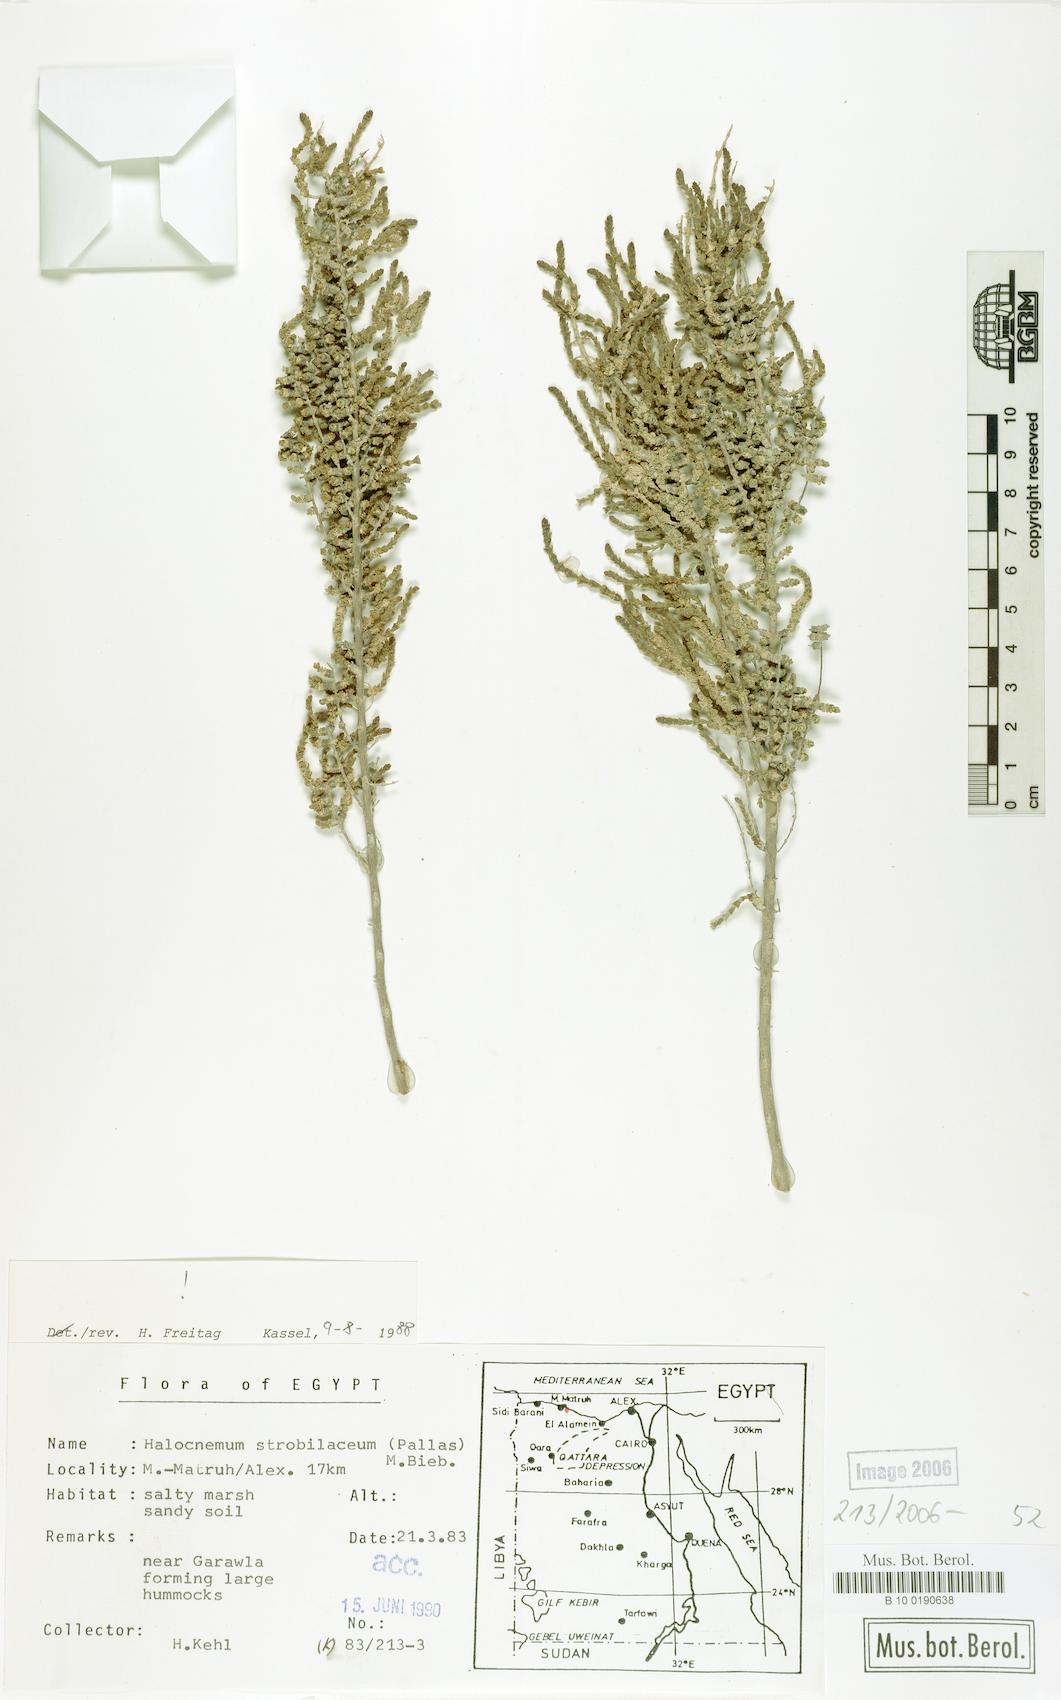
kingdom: Plantae
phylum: Tracheophyta
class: Magnoliopsida
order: Caryophyllales
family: Amaranthaceae
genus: Halocnemum
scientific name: Halocnemum strobilaceum
